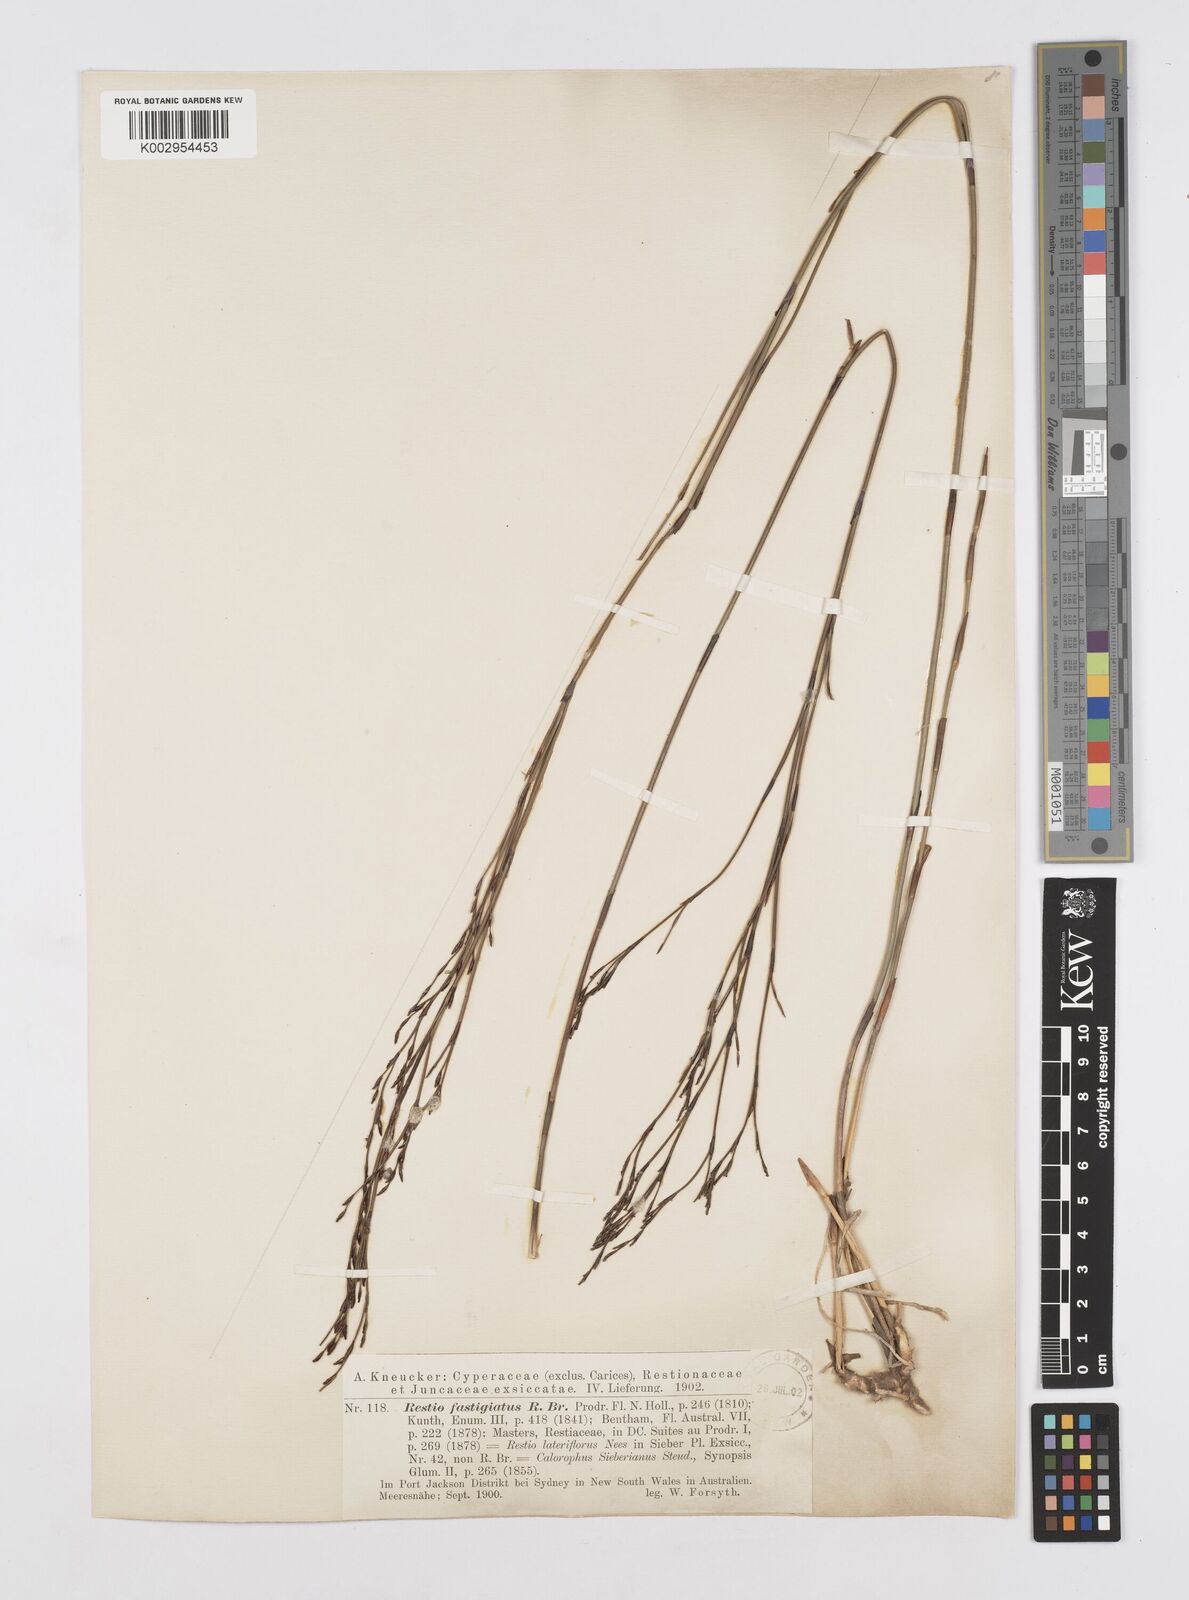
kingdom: Plantae
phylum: Tracheophyta
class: Liliopsida
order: Poales
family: Restionaceae
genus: Chordifex
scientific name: Chordifex fastigiatus
